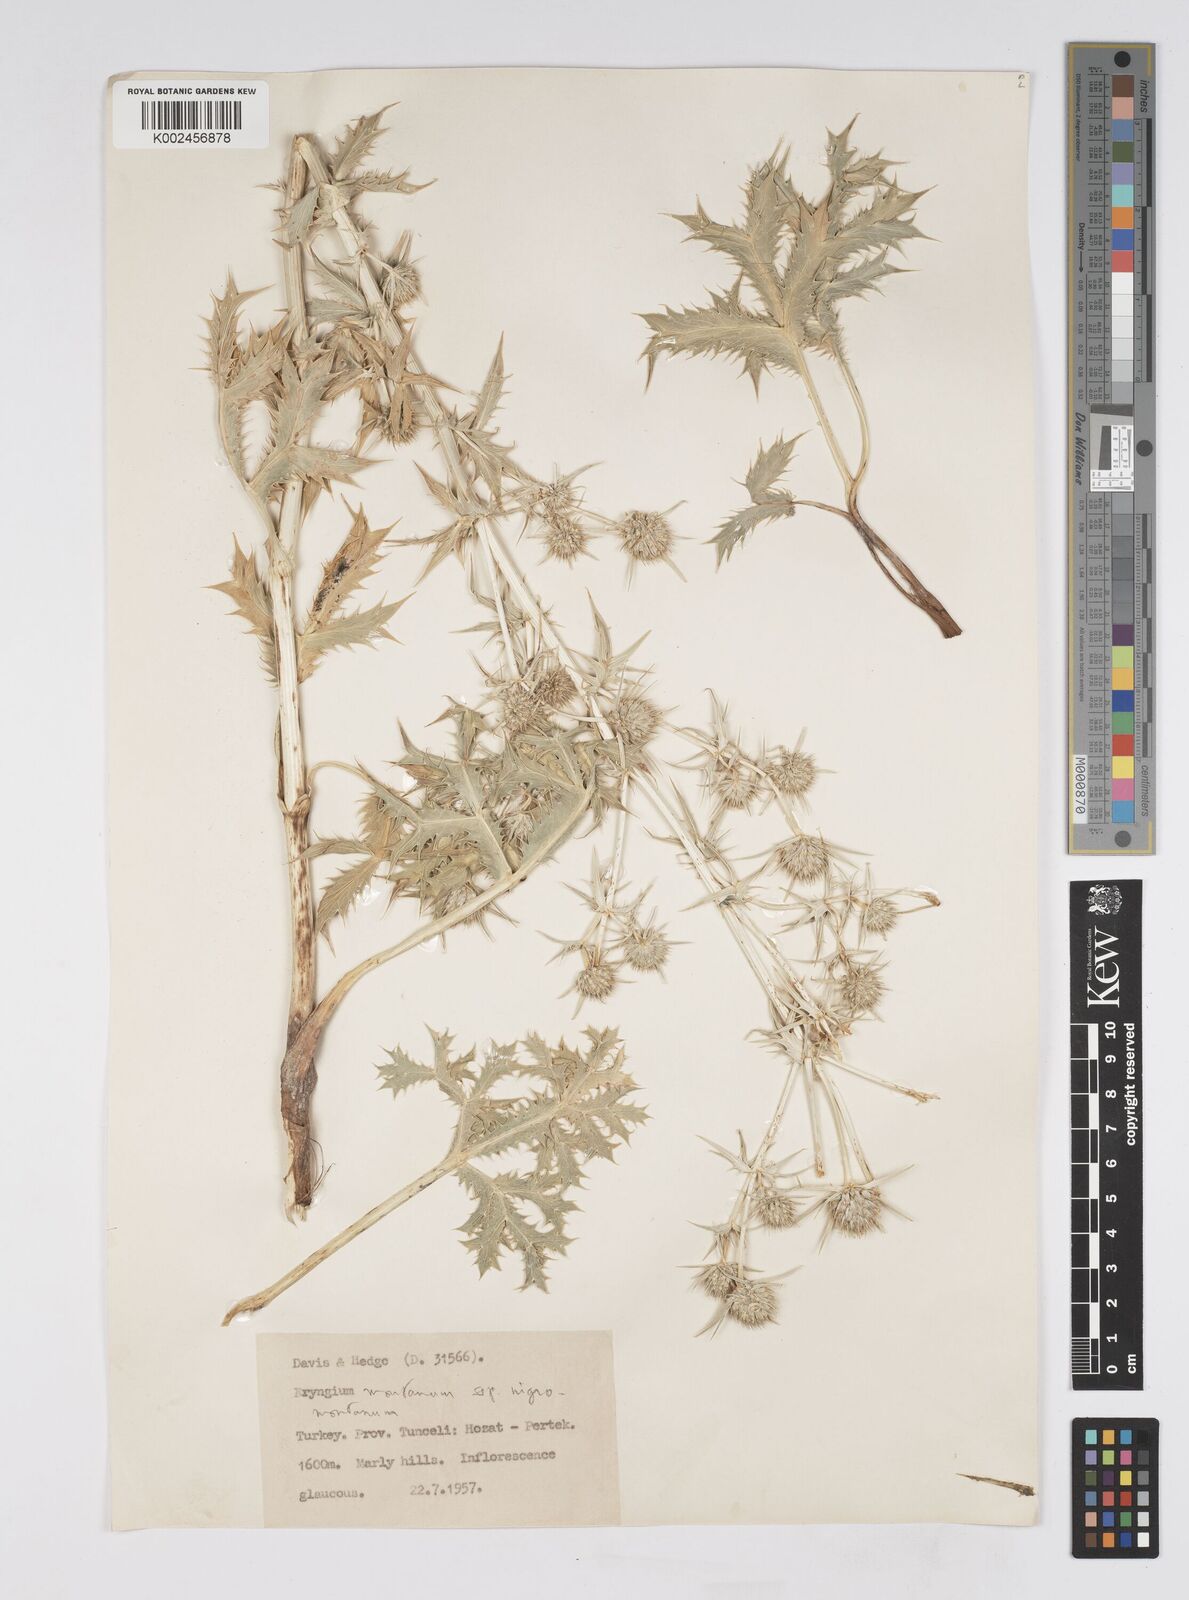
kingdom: Plantae
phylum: Tracheophyta
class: Magnoliopsida
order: Apiales
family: Apiaceae
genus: Eryngium
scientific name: Eryngium maritimum
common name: Sea-holly
